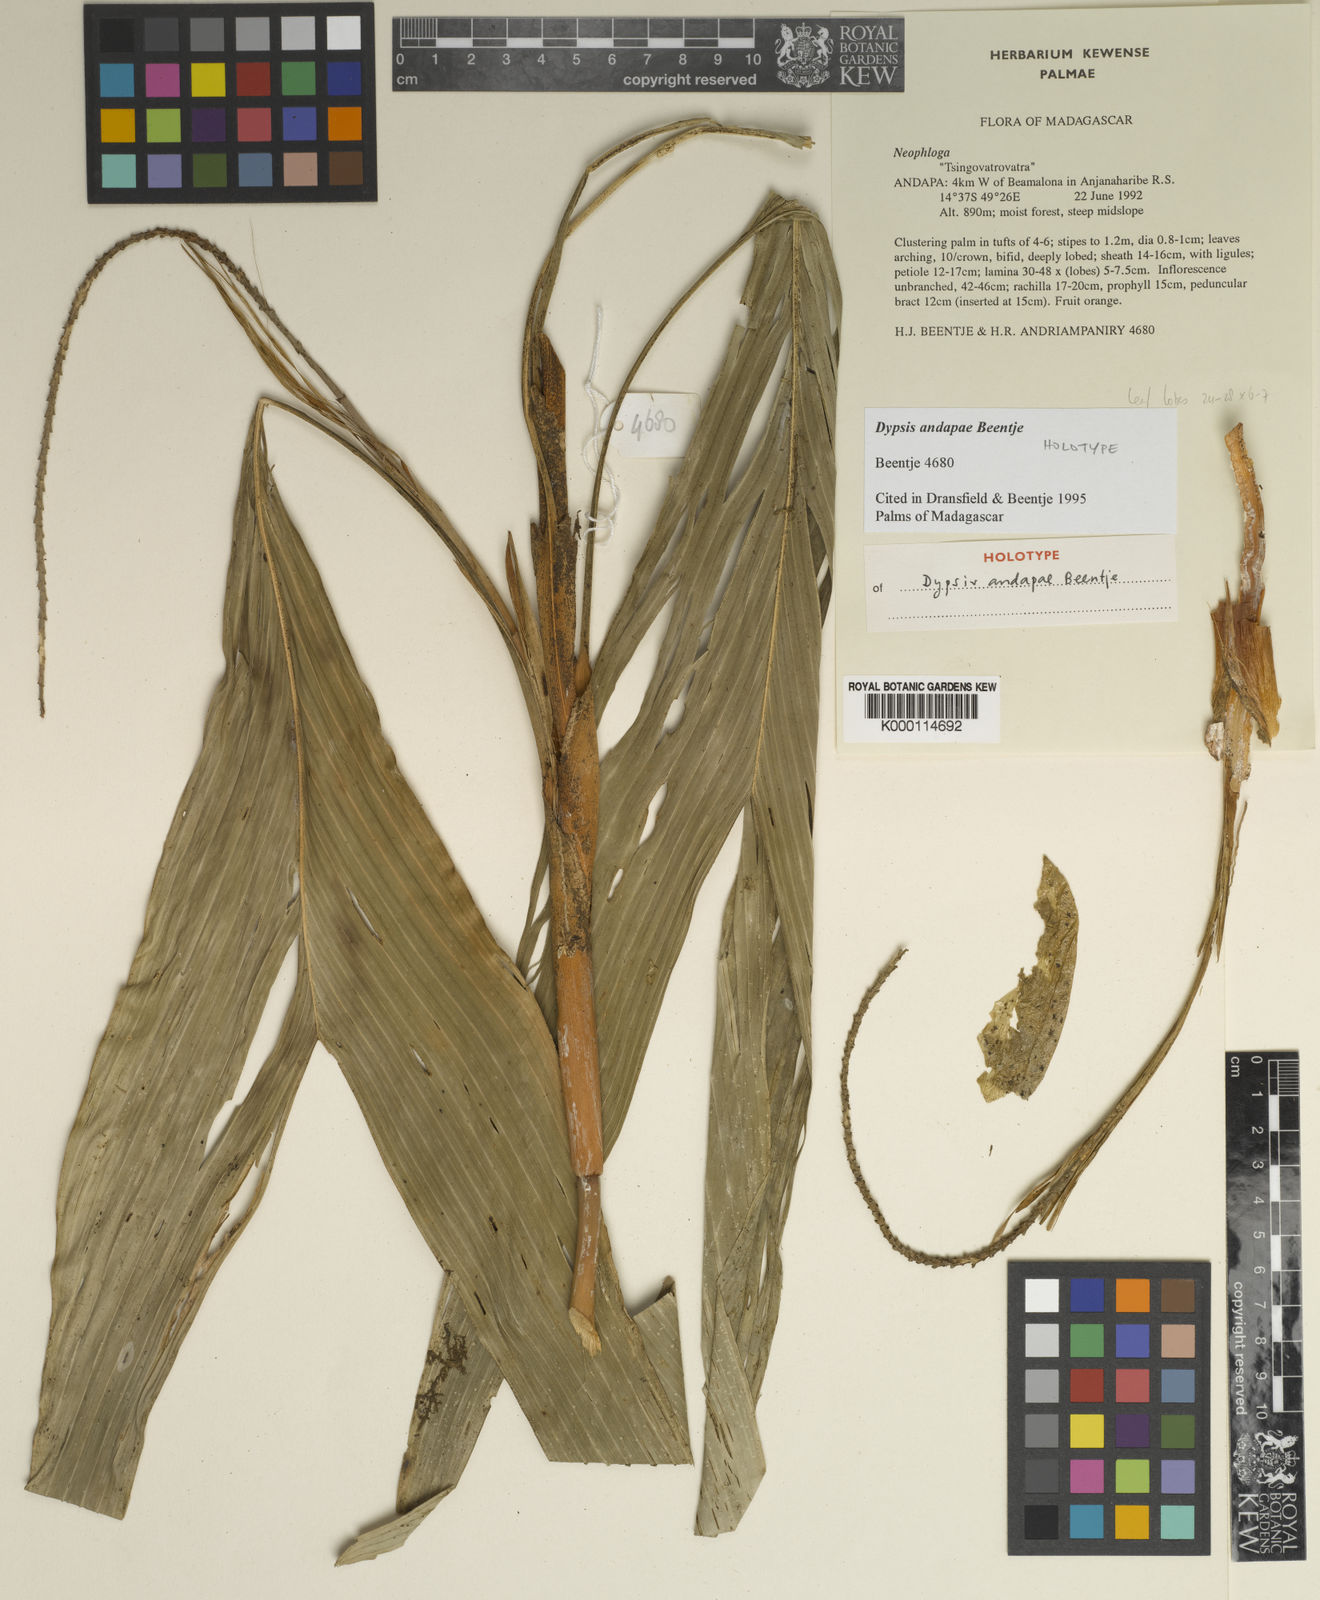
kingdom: Plantae
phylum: Tracheophyta
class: Liliopsida
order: Arecales
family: Arecaceae
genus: Dypsis
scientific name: Dypsis andapae
